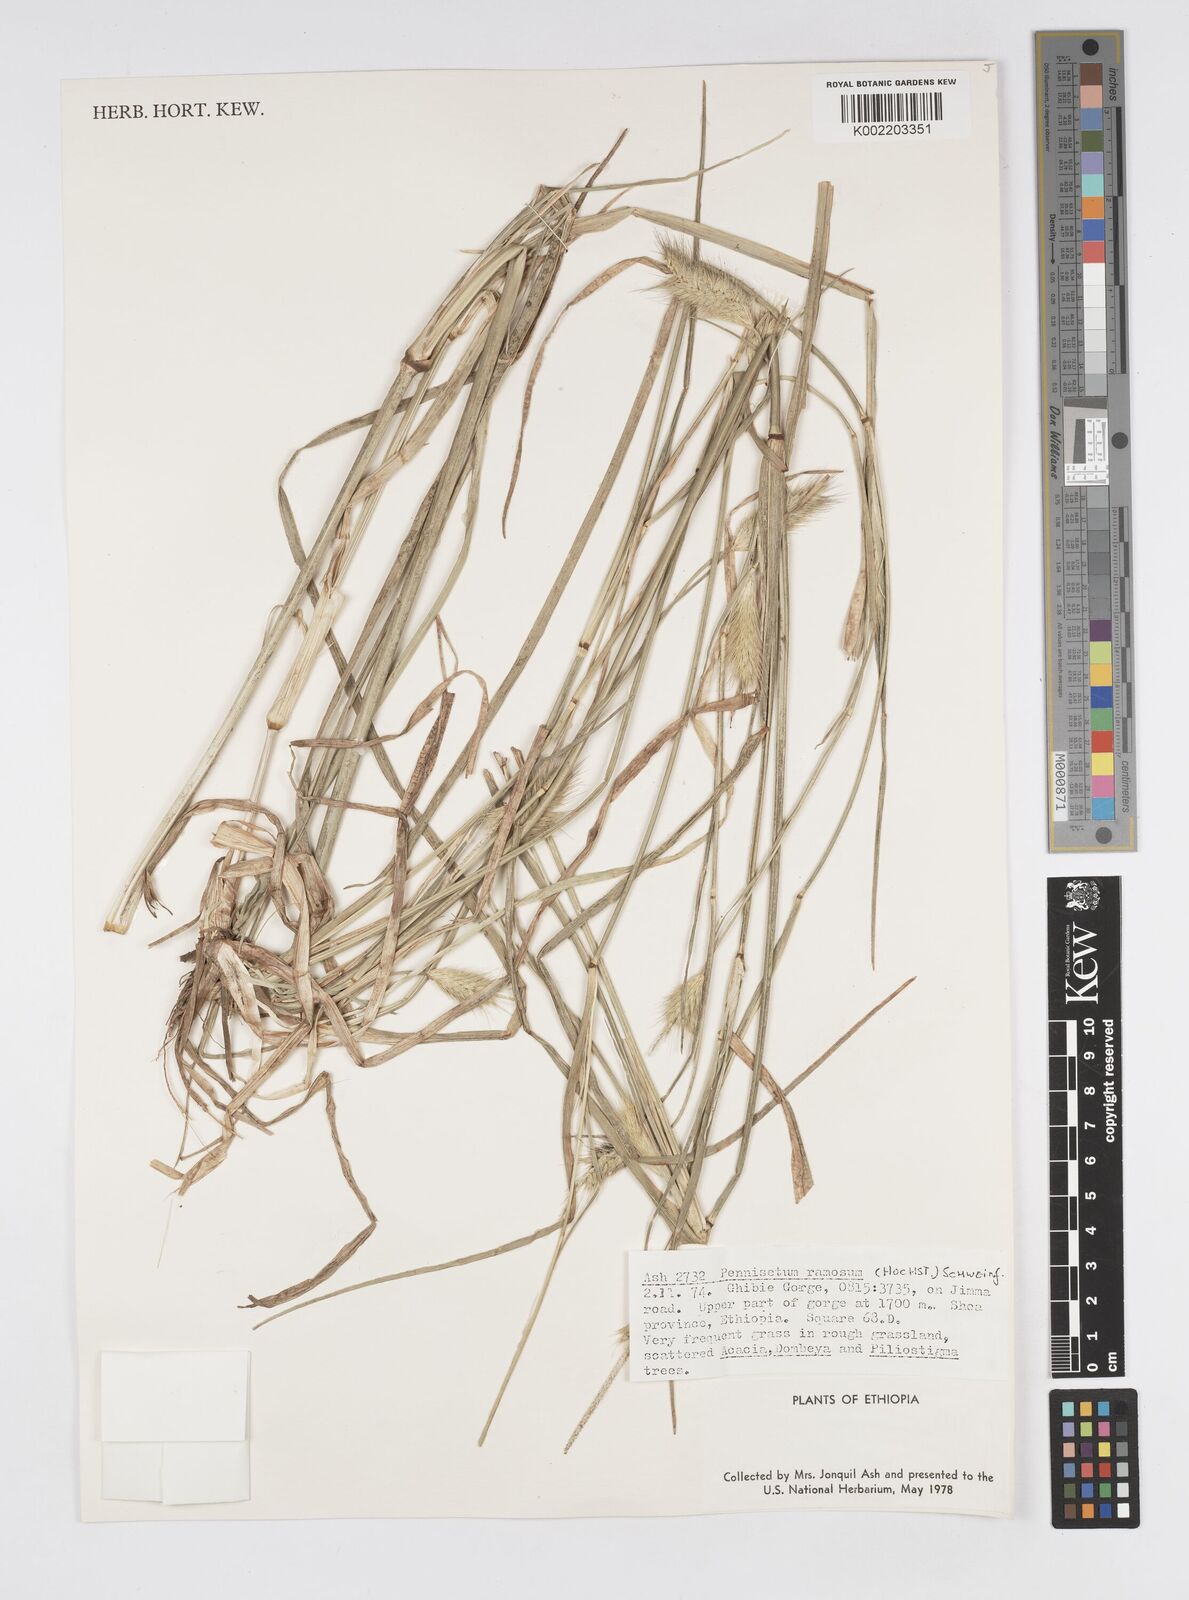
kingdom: Plantae
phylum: Tracheophyta
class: Liliopsida
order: Poales
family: Poaceae
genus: Cenchrus
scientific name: Cenchrus ramosus
